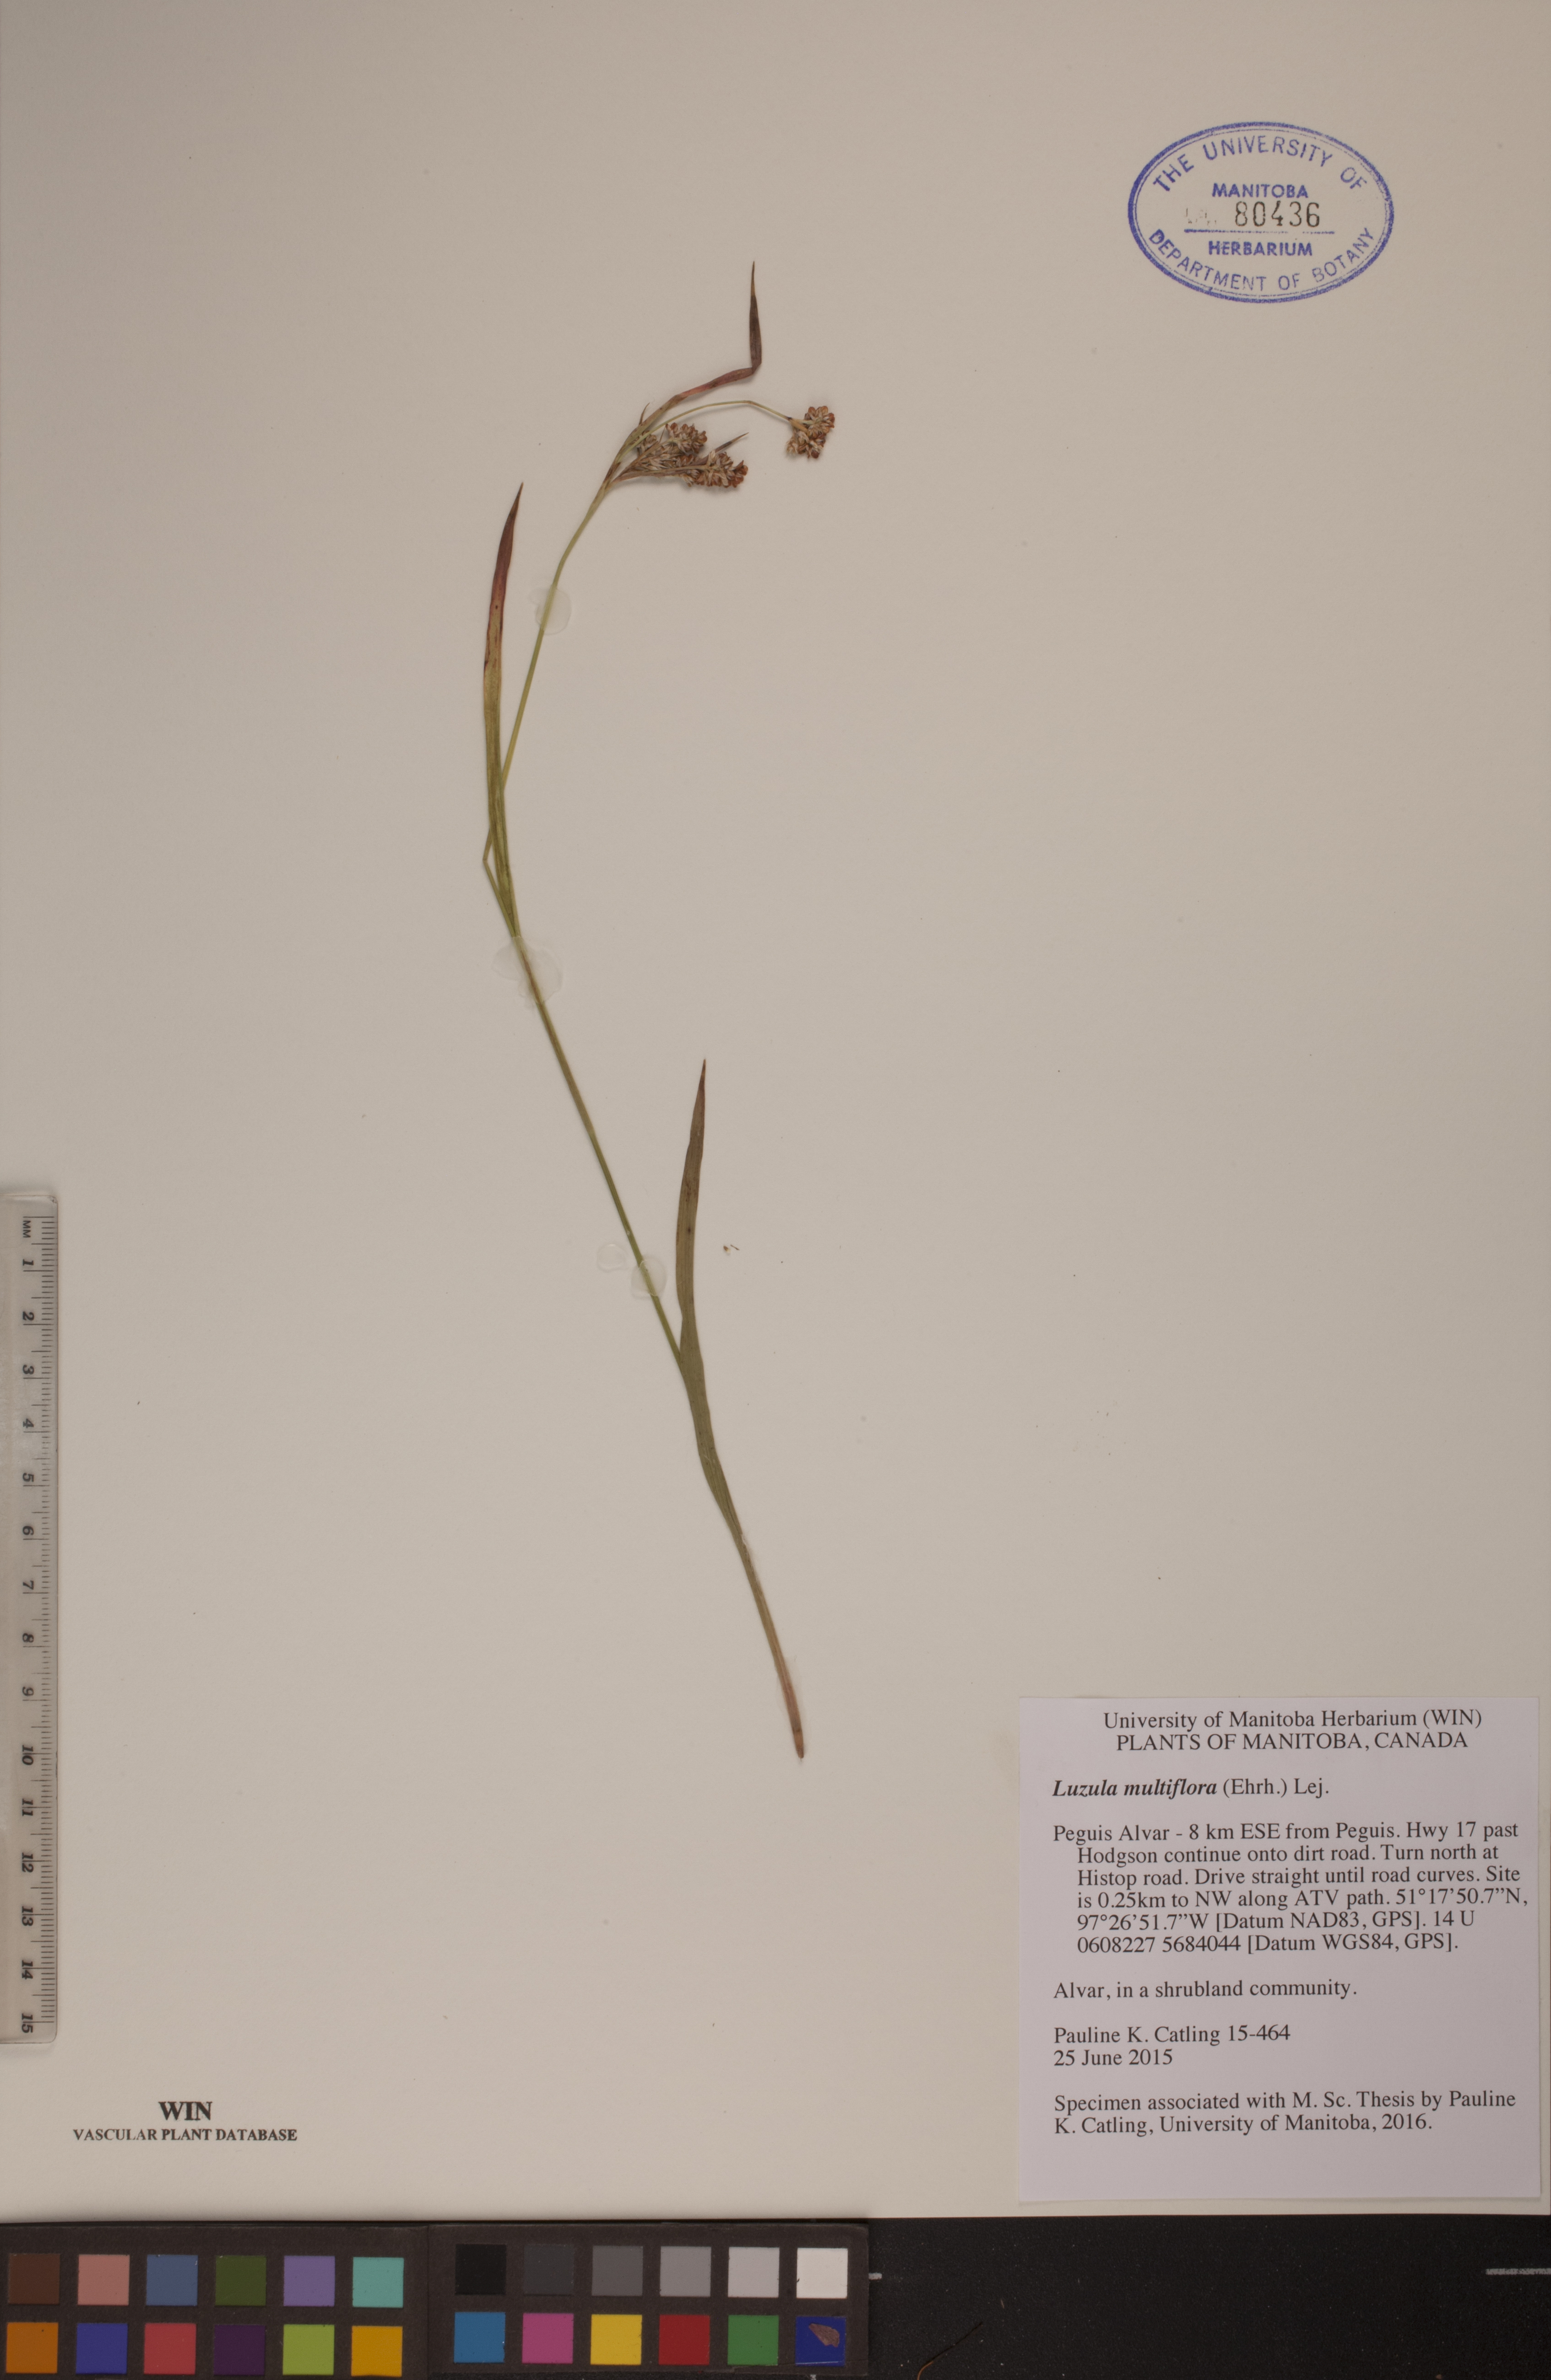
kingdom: Plantae
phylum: Tracheophyta
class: Liliopsida
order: Poales
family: Juncaceae
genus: Luzula
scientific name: Luzula multiflora
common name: Heath wood-rush
